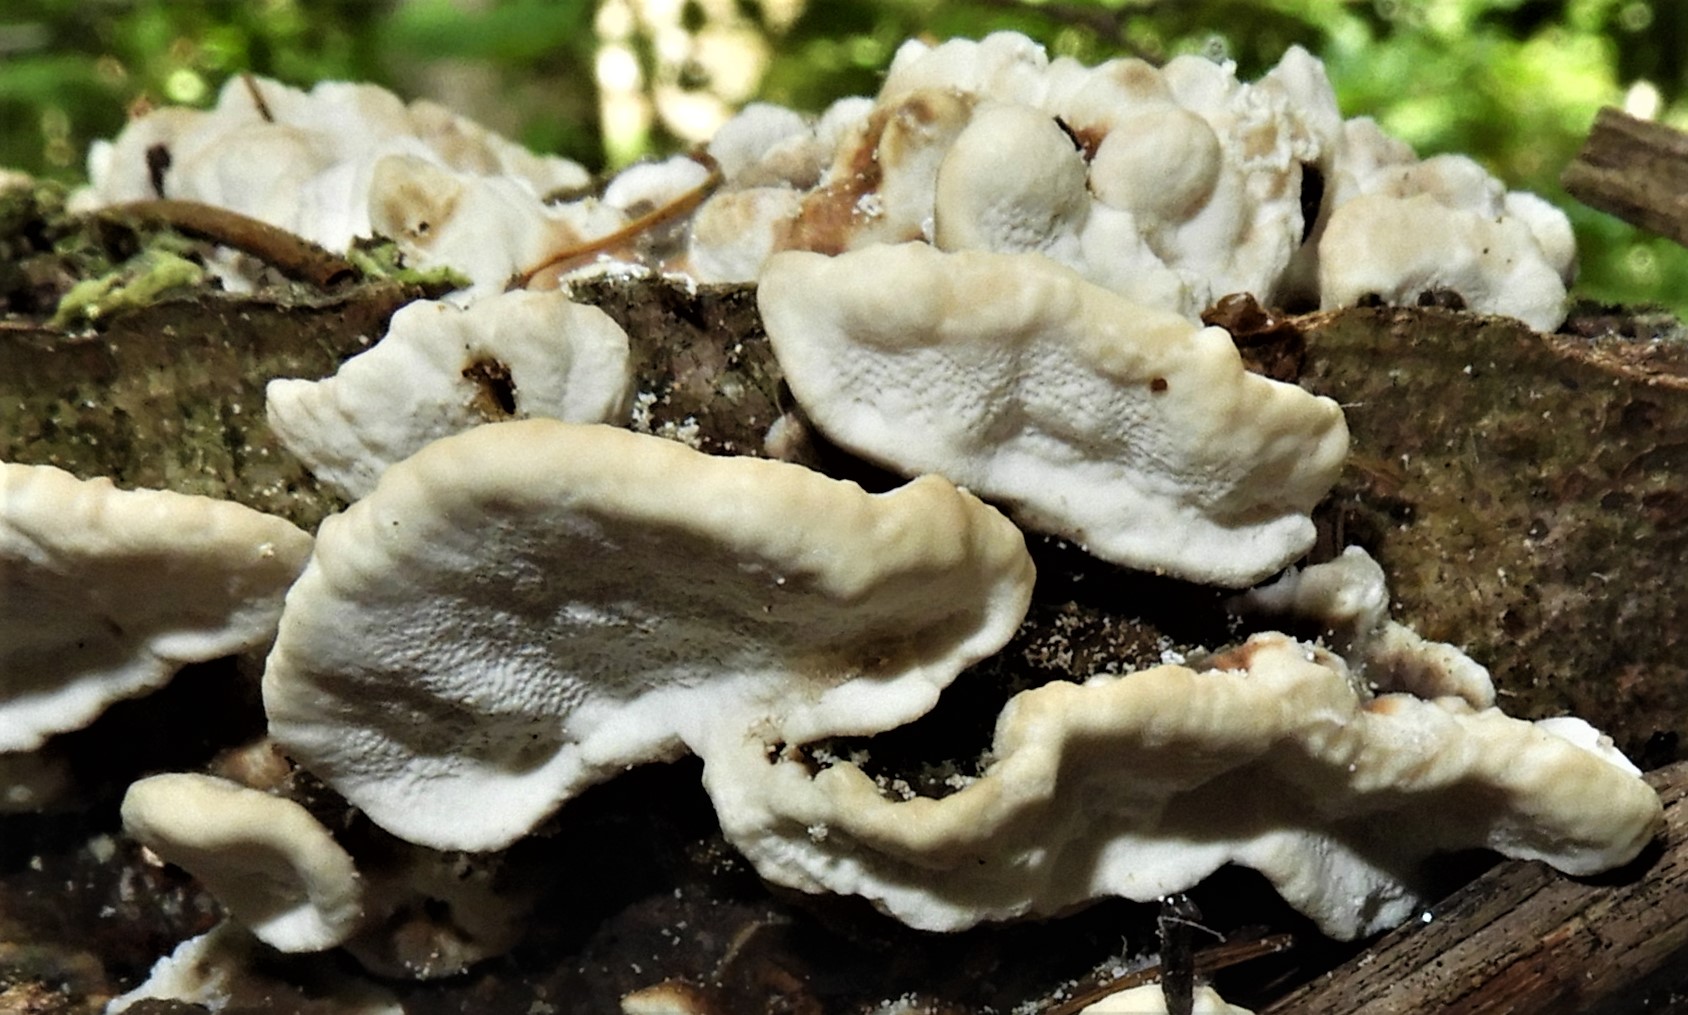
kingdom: Fungi
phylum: Basidiomycota
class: Agaricomycetes
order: Polyporales
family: Phanerochaetaceae
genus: Bjerkandera
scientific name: Bjerkandera adusta
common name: sveden sodporesvamp
